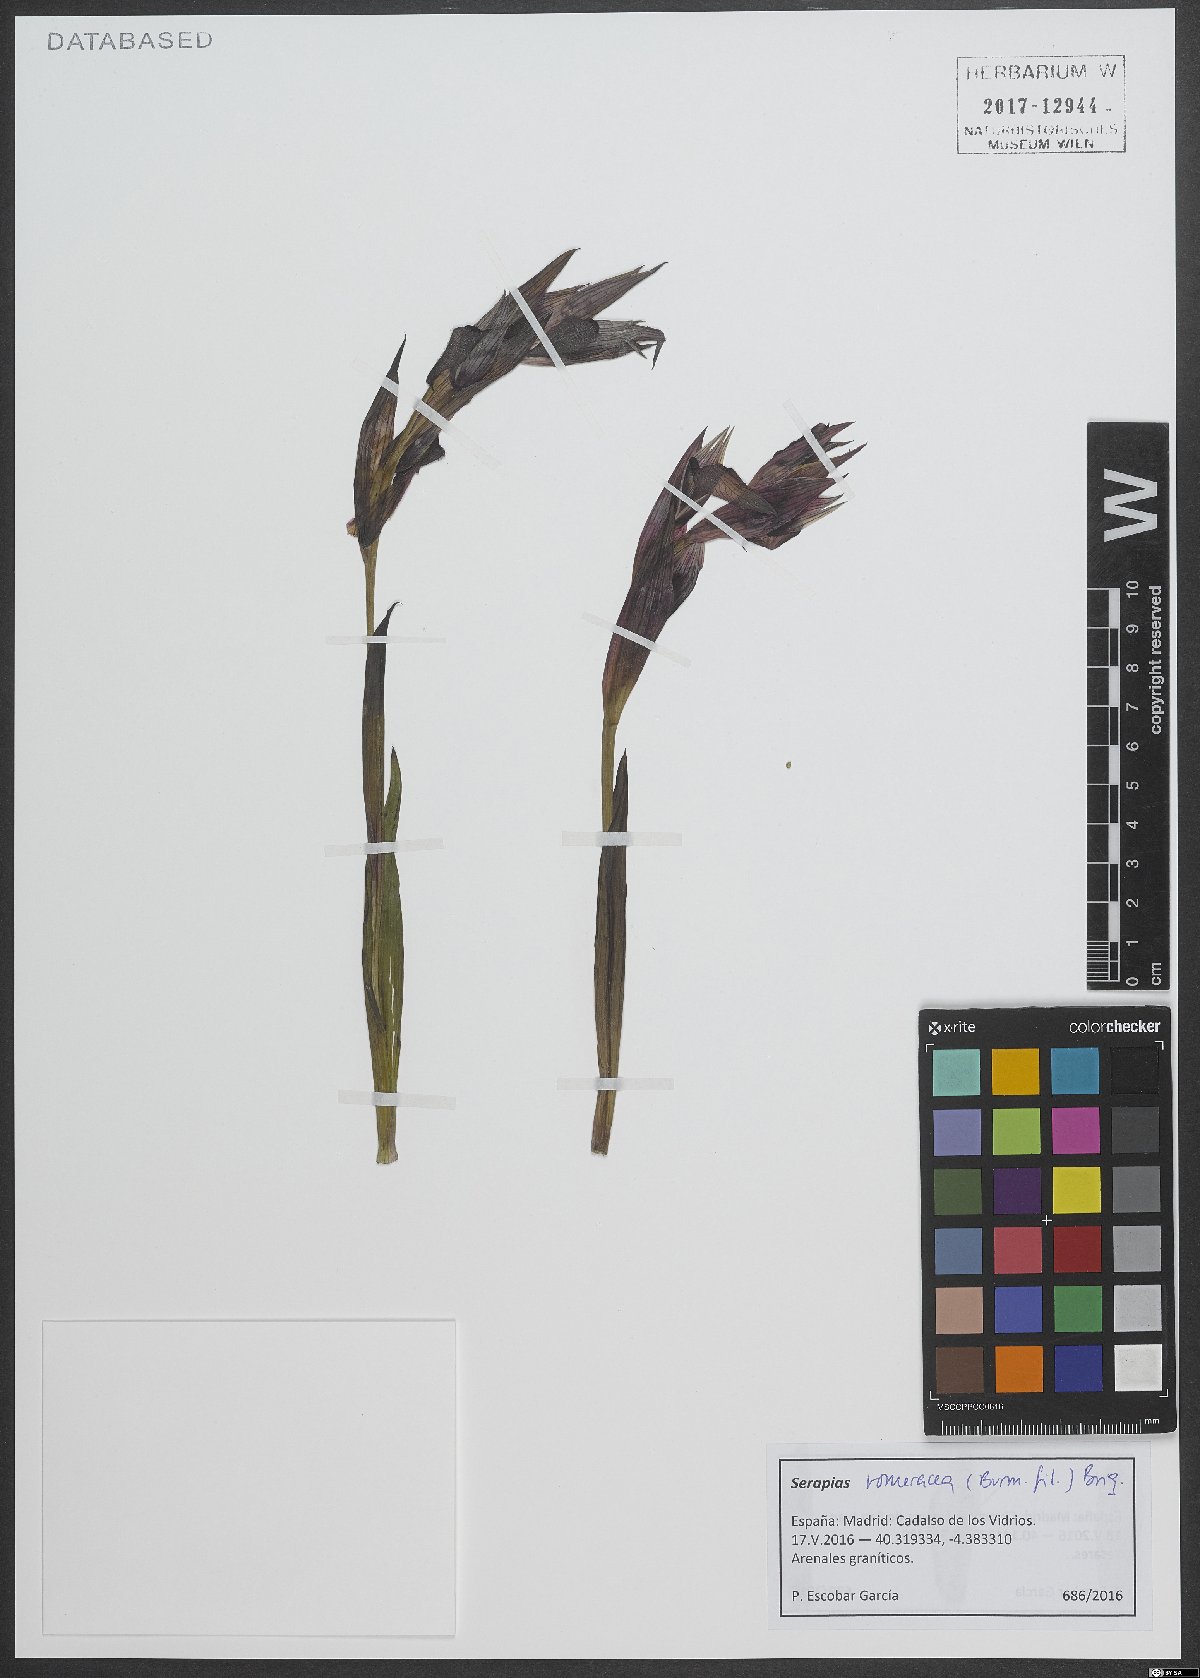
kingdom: Plantae
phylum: Tracheophyta
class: Liliopsida
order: Asparagales
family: Orchidaceae
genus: Serapias
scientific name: Serapias vomeracea
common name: Long-lipped tongue-orchid
